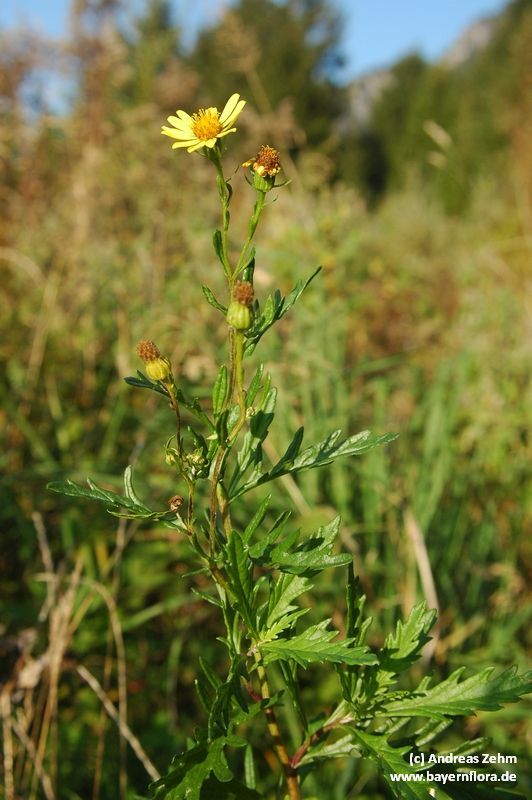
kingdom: Plantae
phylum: Tracheophyta
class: Magnoliopsida
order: Asterales
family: Asteraceae
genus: Jacobaea
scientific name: Jacobaea erucifolia
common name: Hoary ragwort
